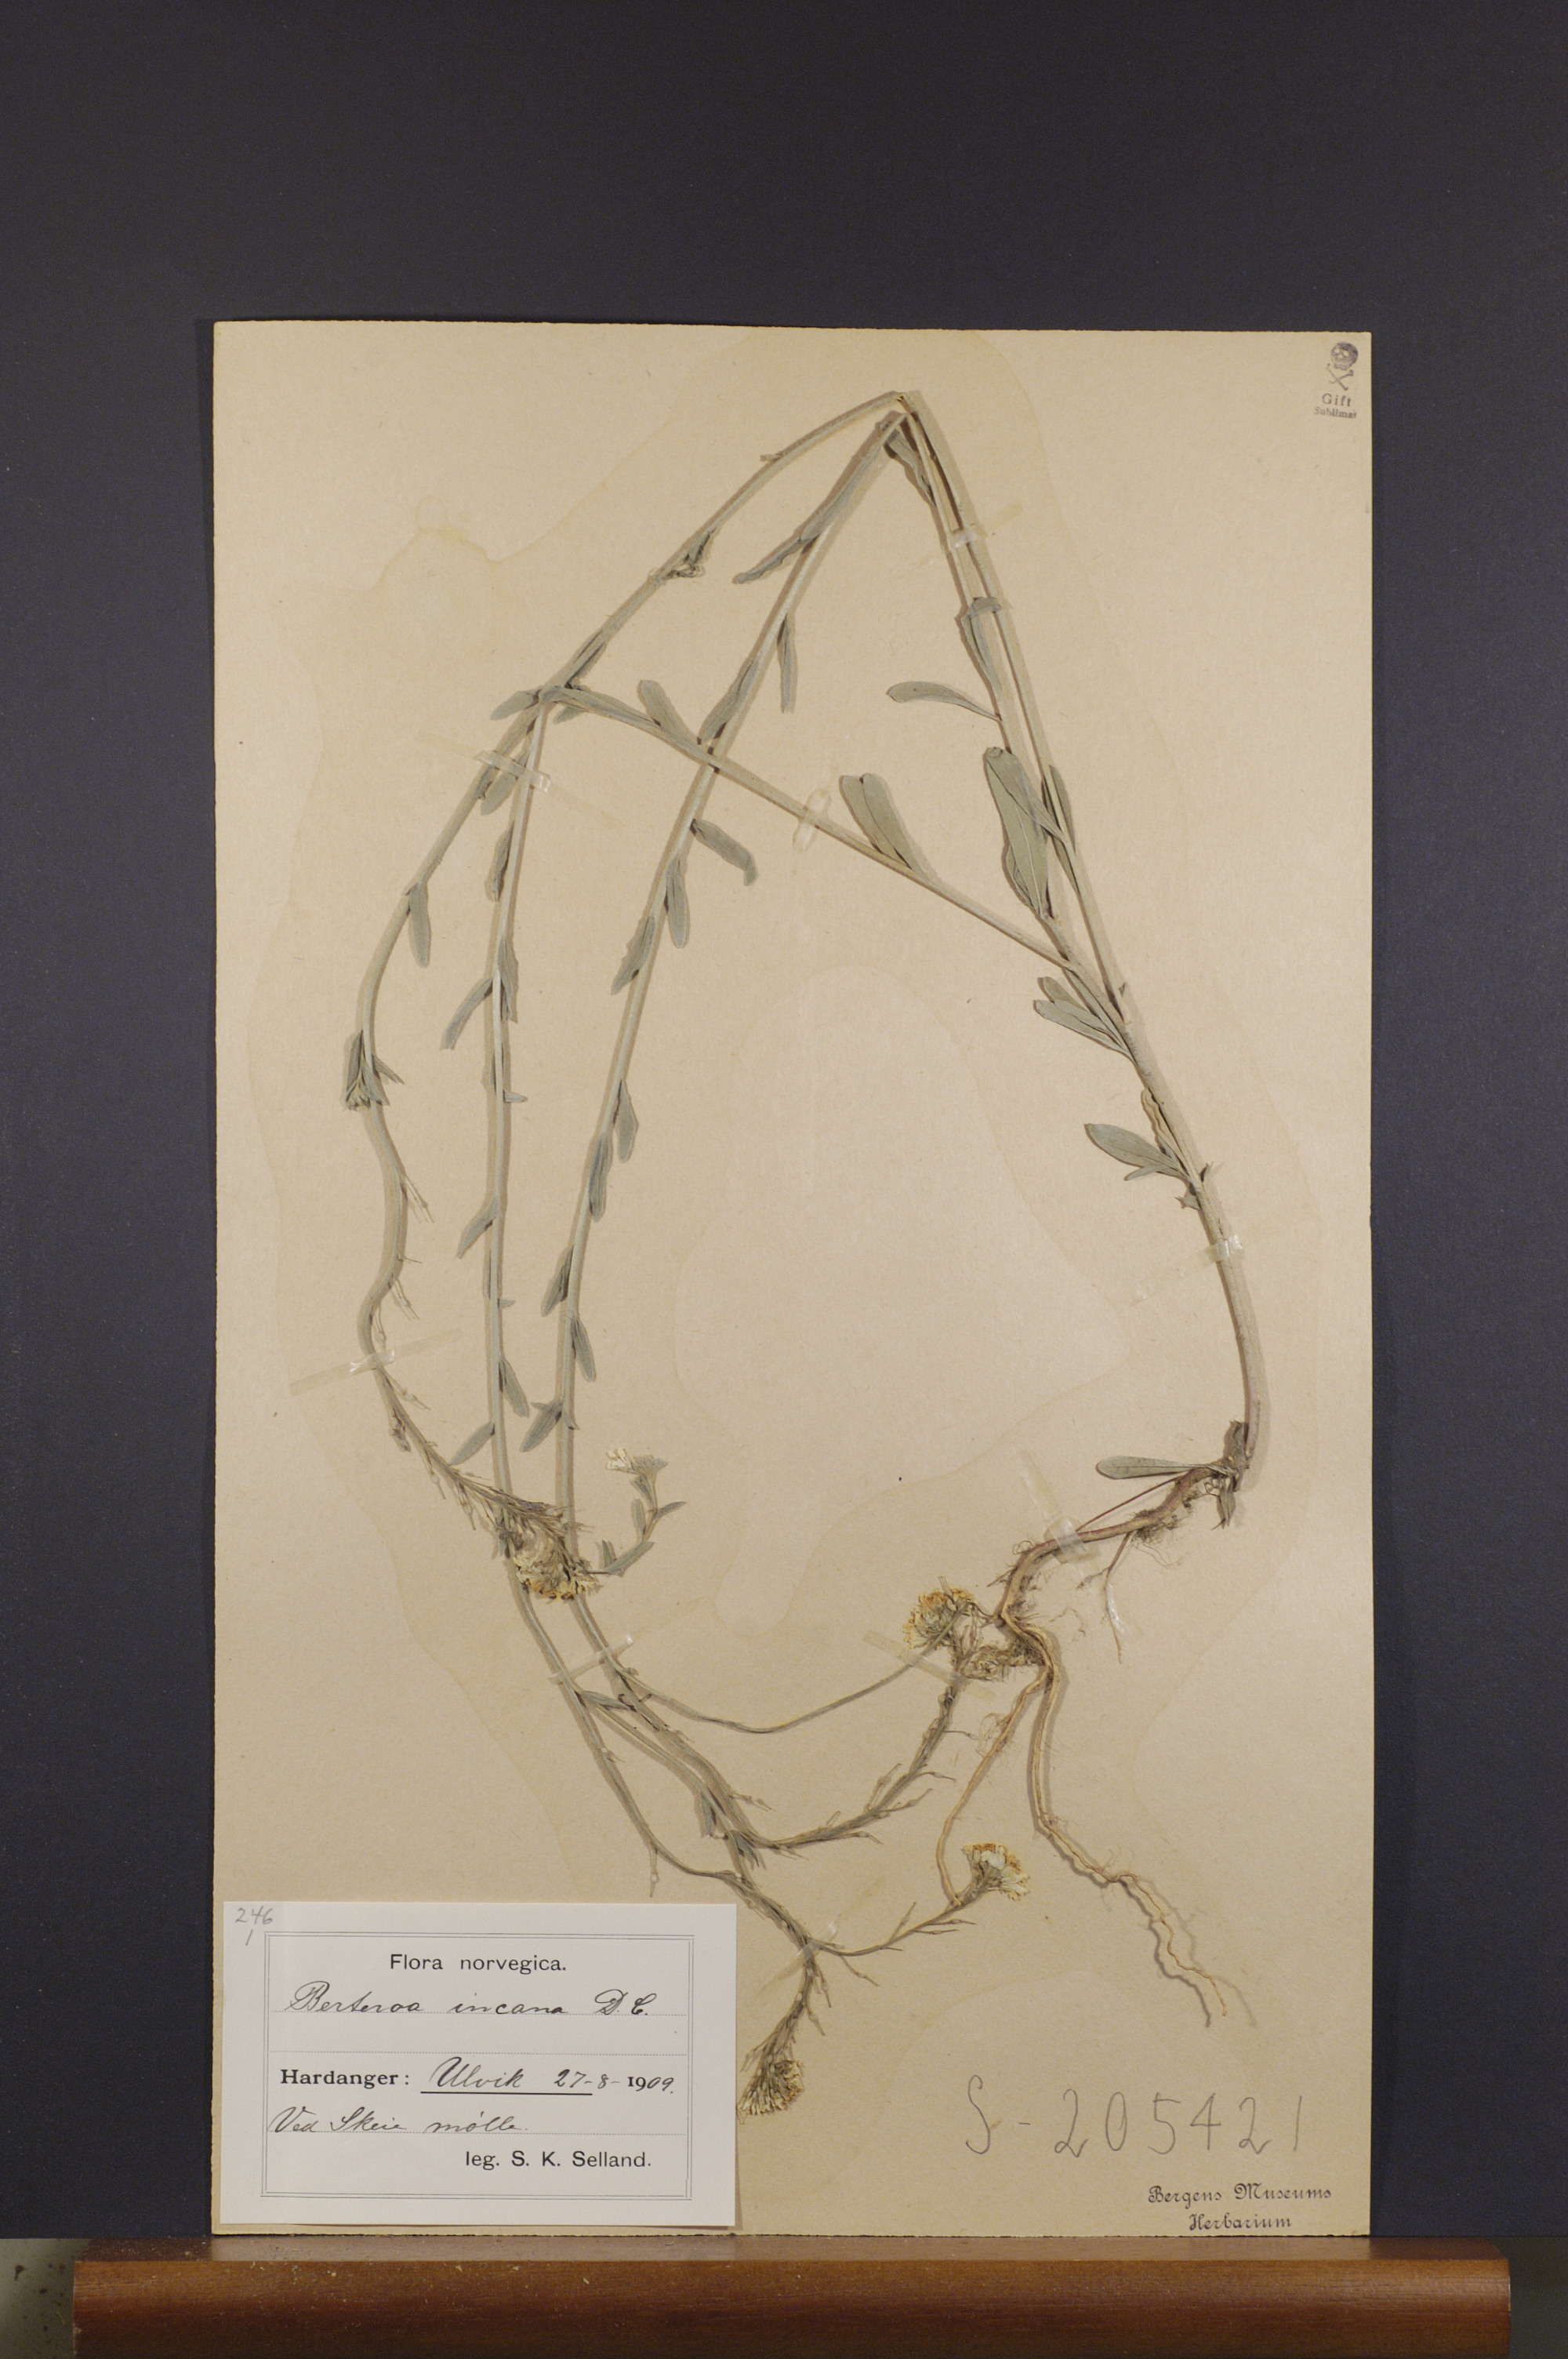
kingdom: Plantae
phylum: Tracheophyta
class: Magnoliopsida
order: Brassicales
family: Brassicaceae
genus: Berteroa
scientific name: Berteroa incana
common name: Hoary alison
